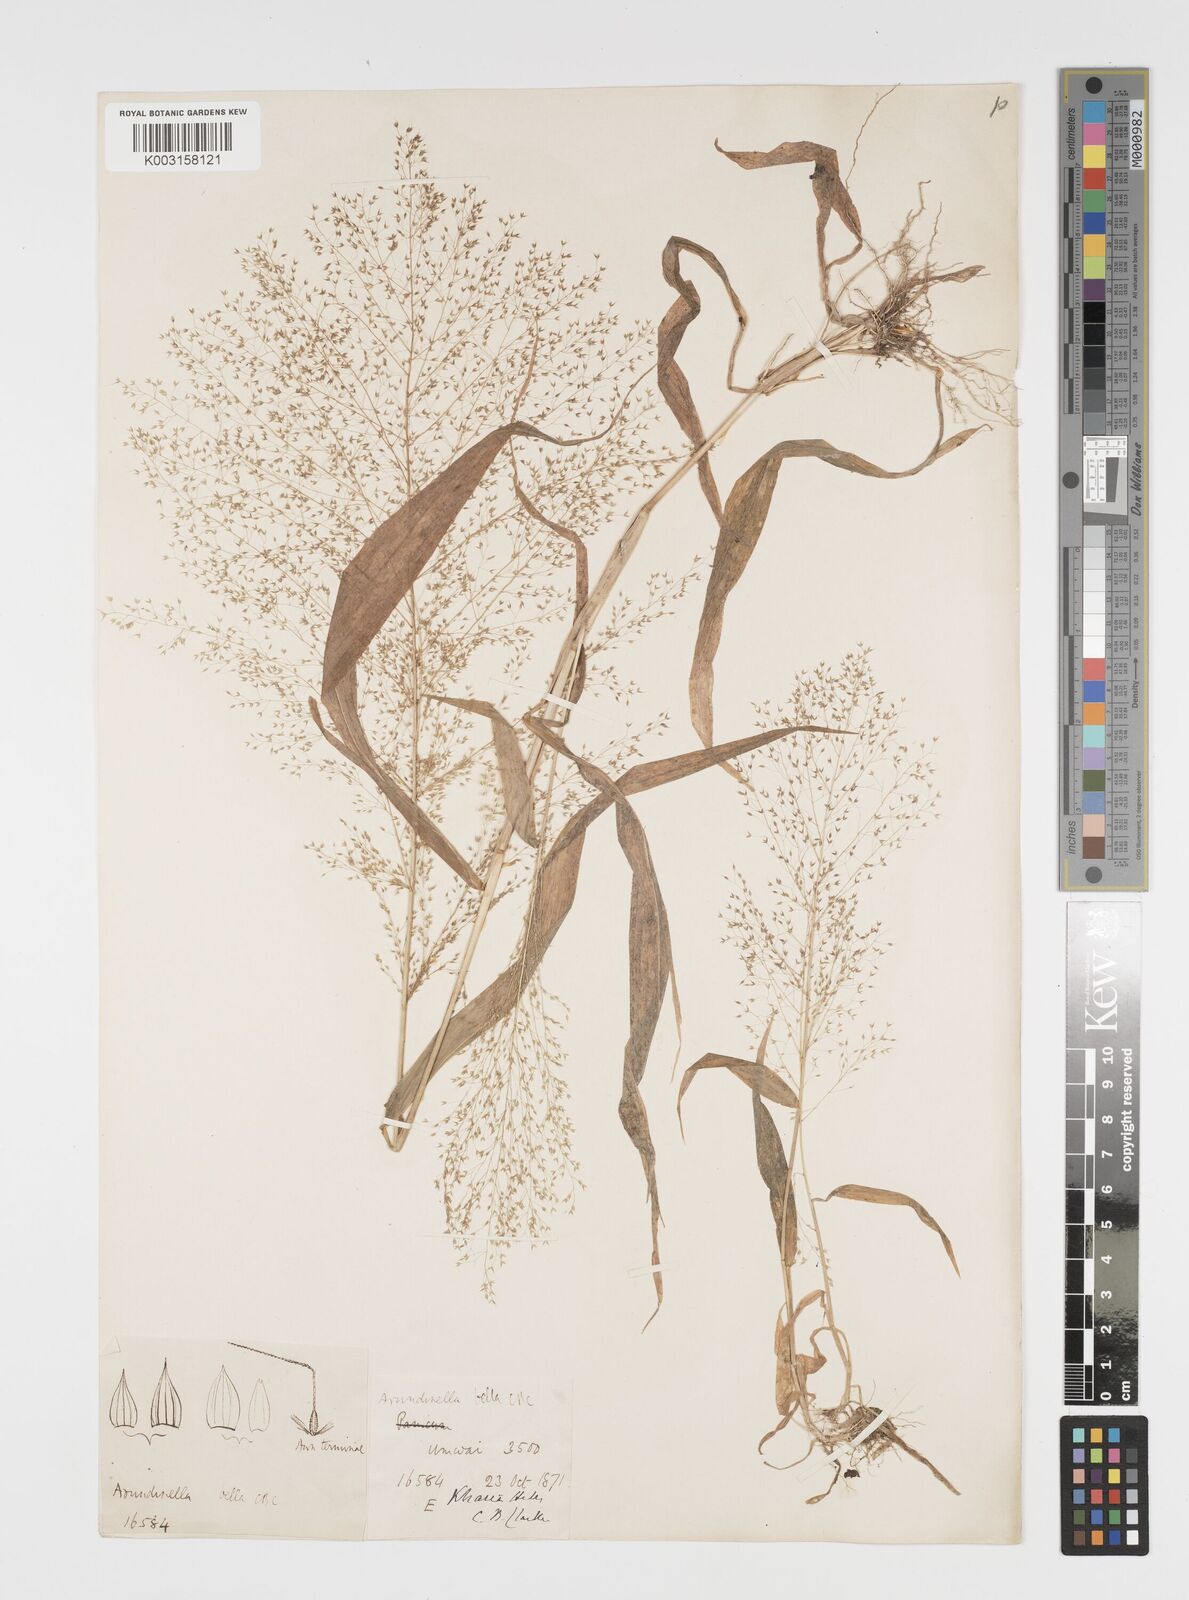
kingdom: Plantae
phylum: Tracheophyta
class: Liliopsida
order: Poales
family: Poaceae
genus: Arundinella
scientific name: Arundinella pumila
